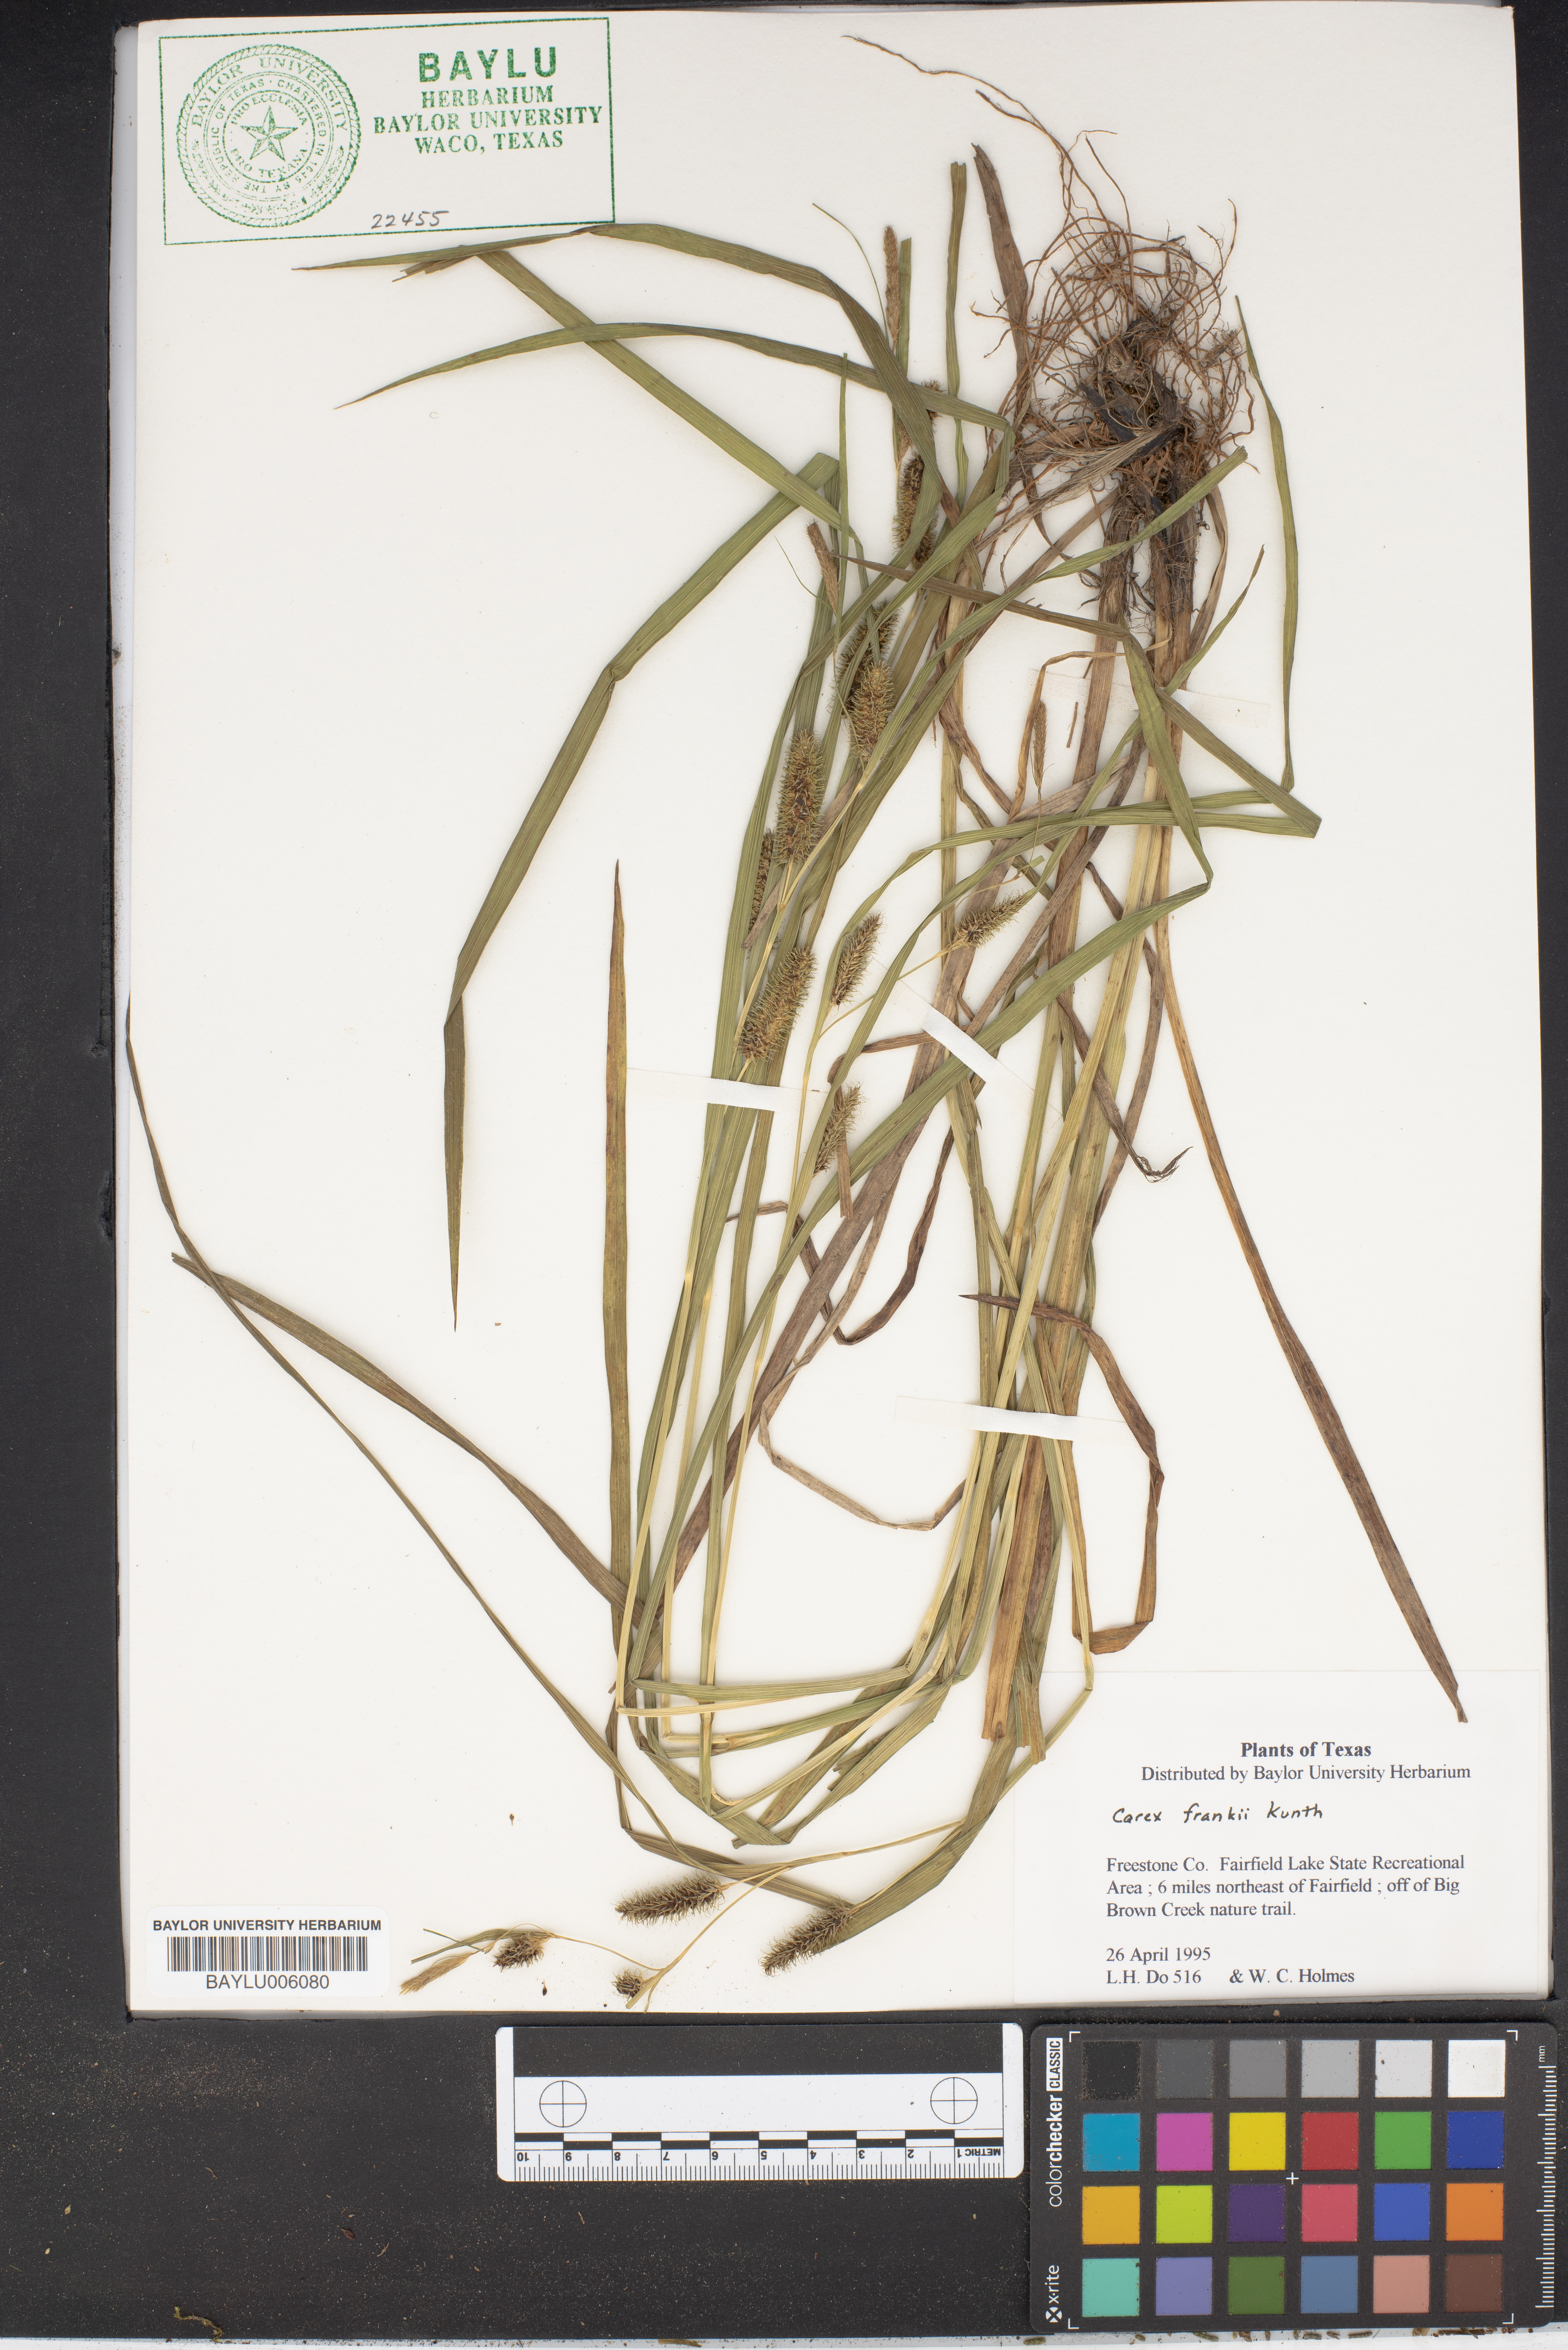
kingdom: Plantae
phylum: Tracheophyta
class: Liliopsida
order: Poales
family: Cyperaceae
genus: Carex
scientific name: Carex frankii
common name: Frank's sedge
